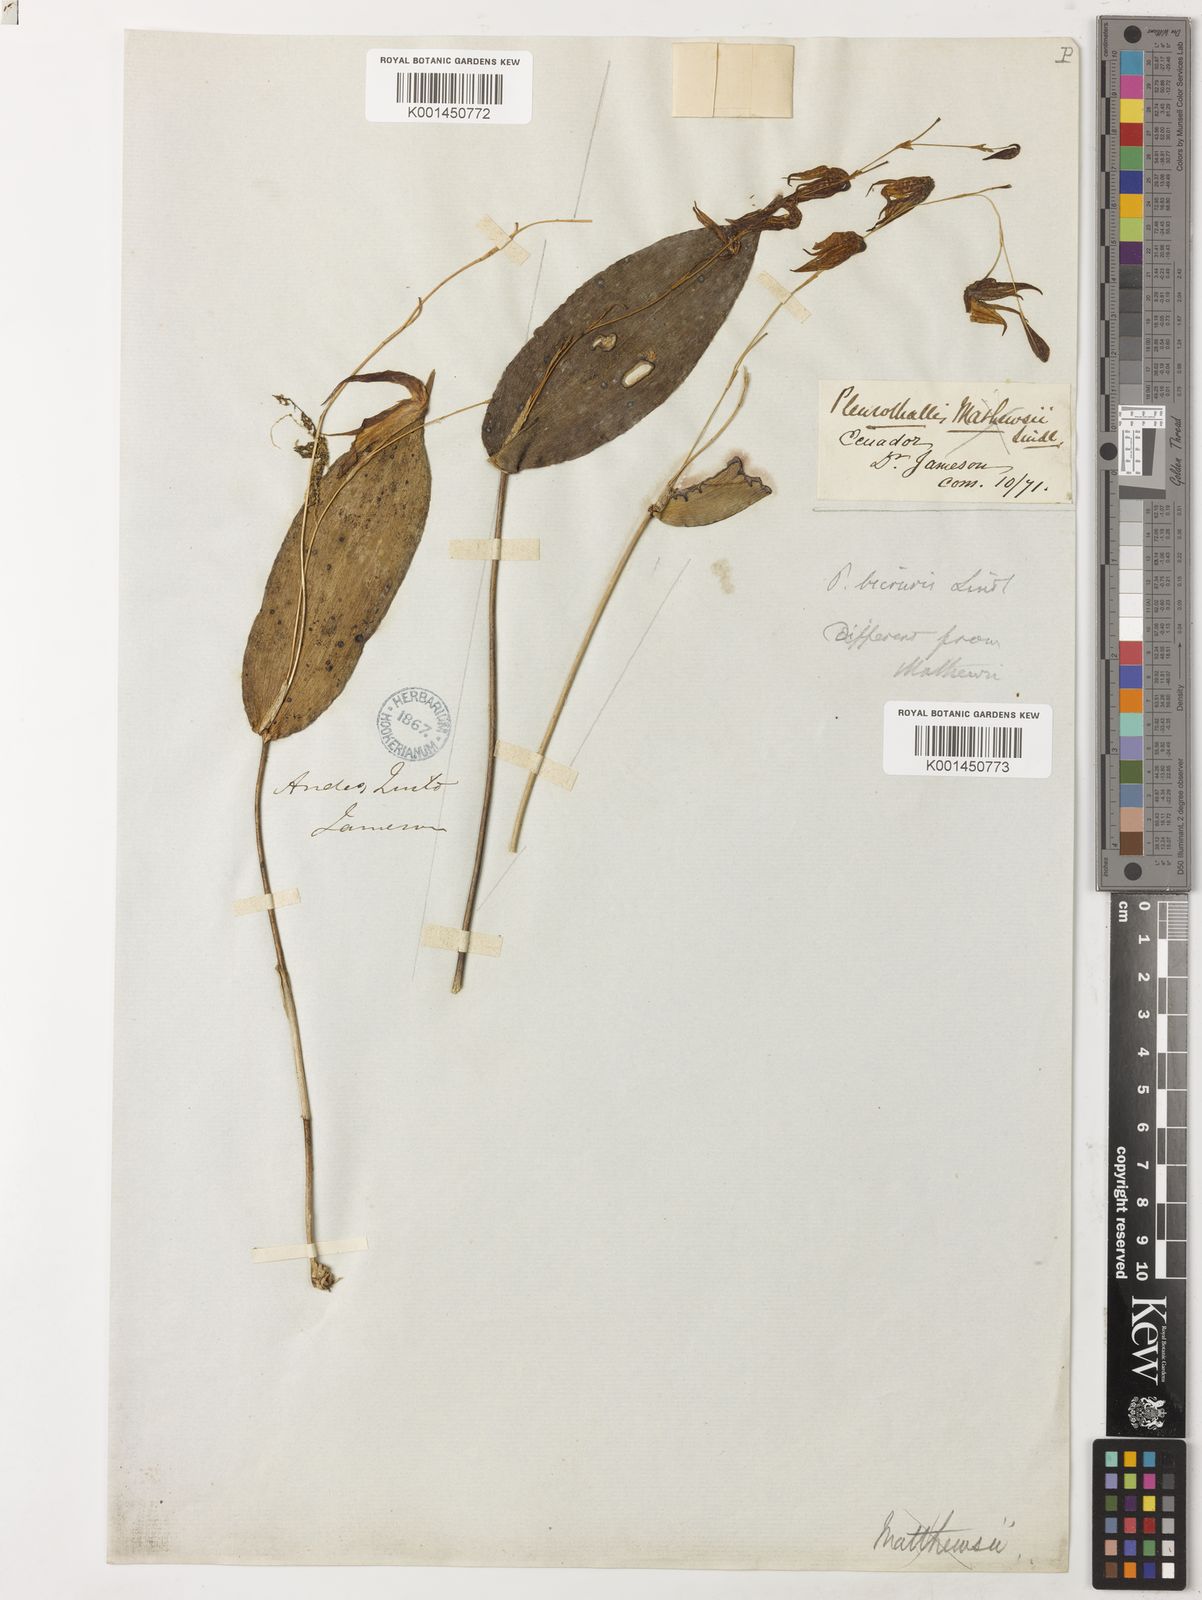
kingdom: Plantae
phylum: Tracheophyta
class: Liliopsida
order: Asparagales
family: Orchidaceae
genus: Pleurothallis
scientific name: Pleurothallis bicornis
